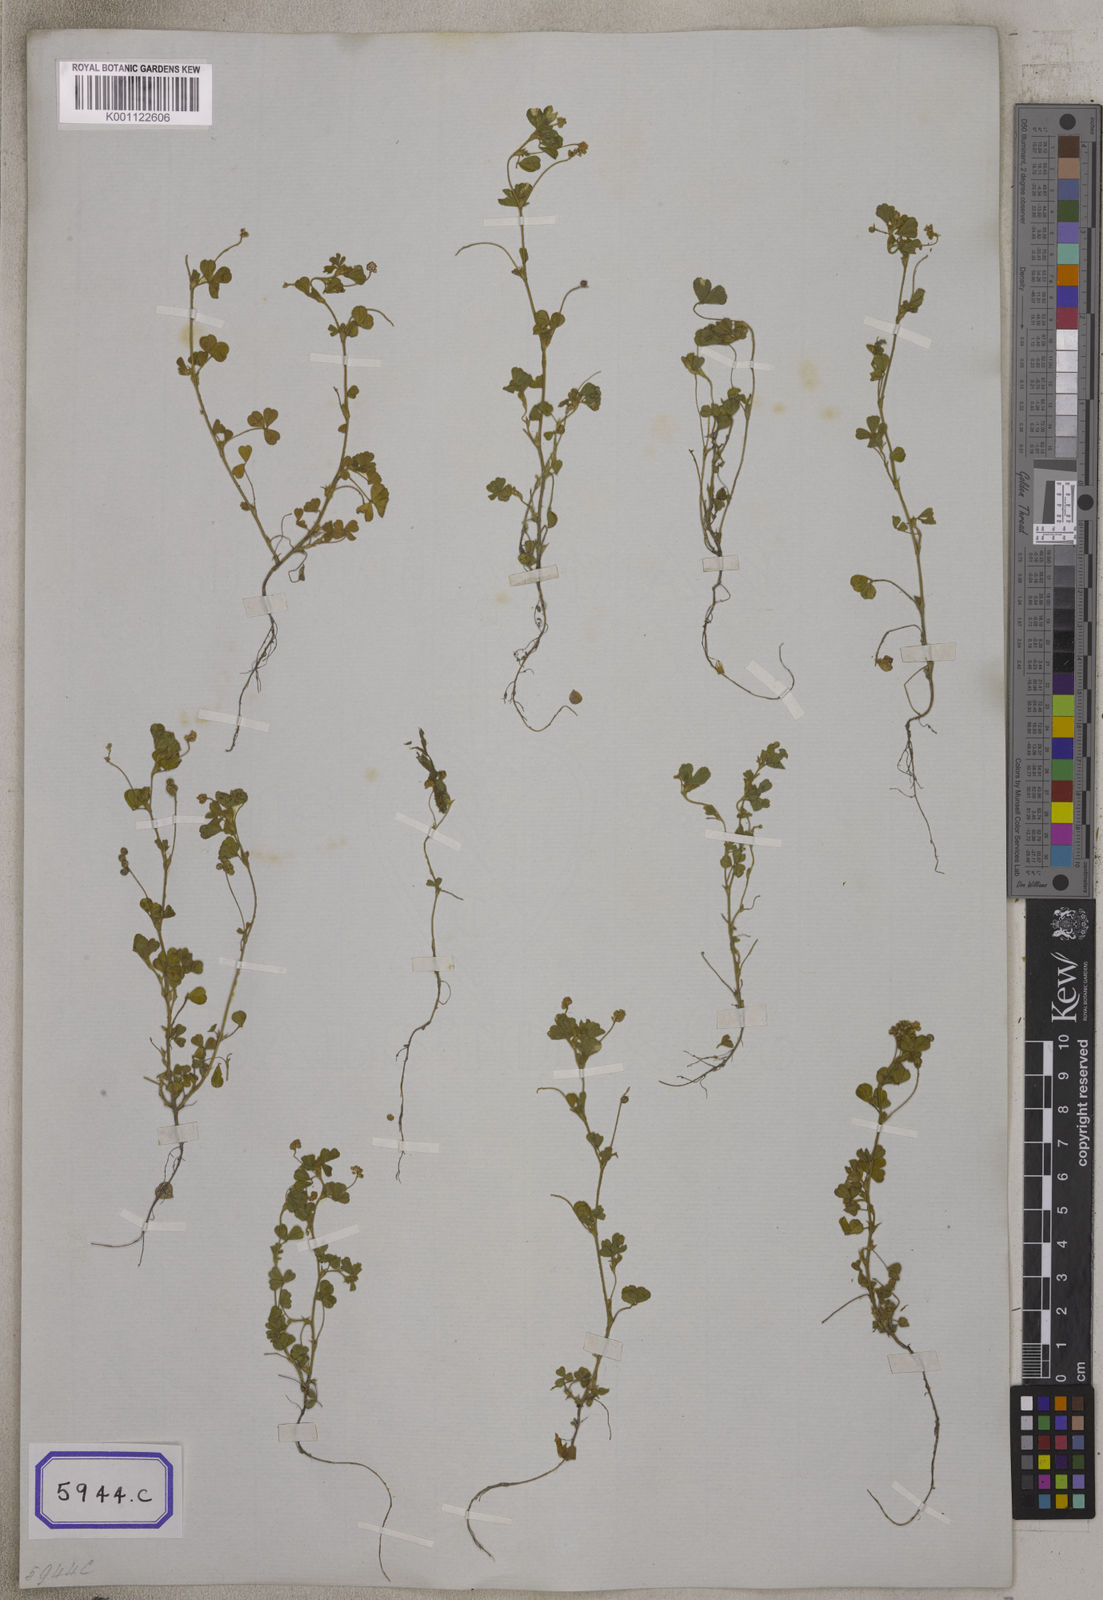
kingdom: Plantae
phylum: Tracheophyta
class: Magnoliopsida
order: Fabales
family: Fabaceae
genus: Medicago
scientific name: Medicago lupulina
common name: Black medick
